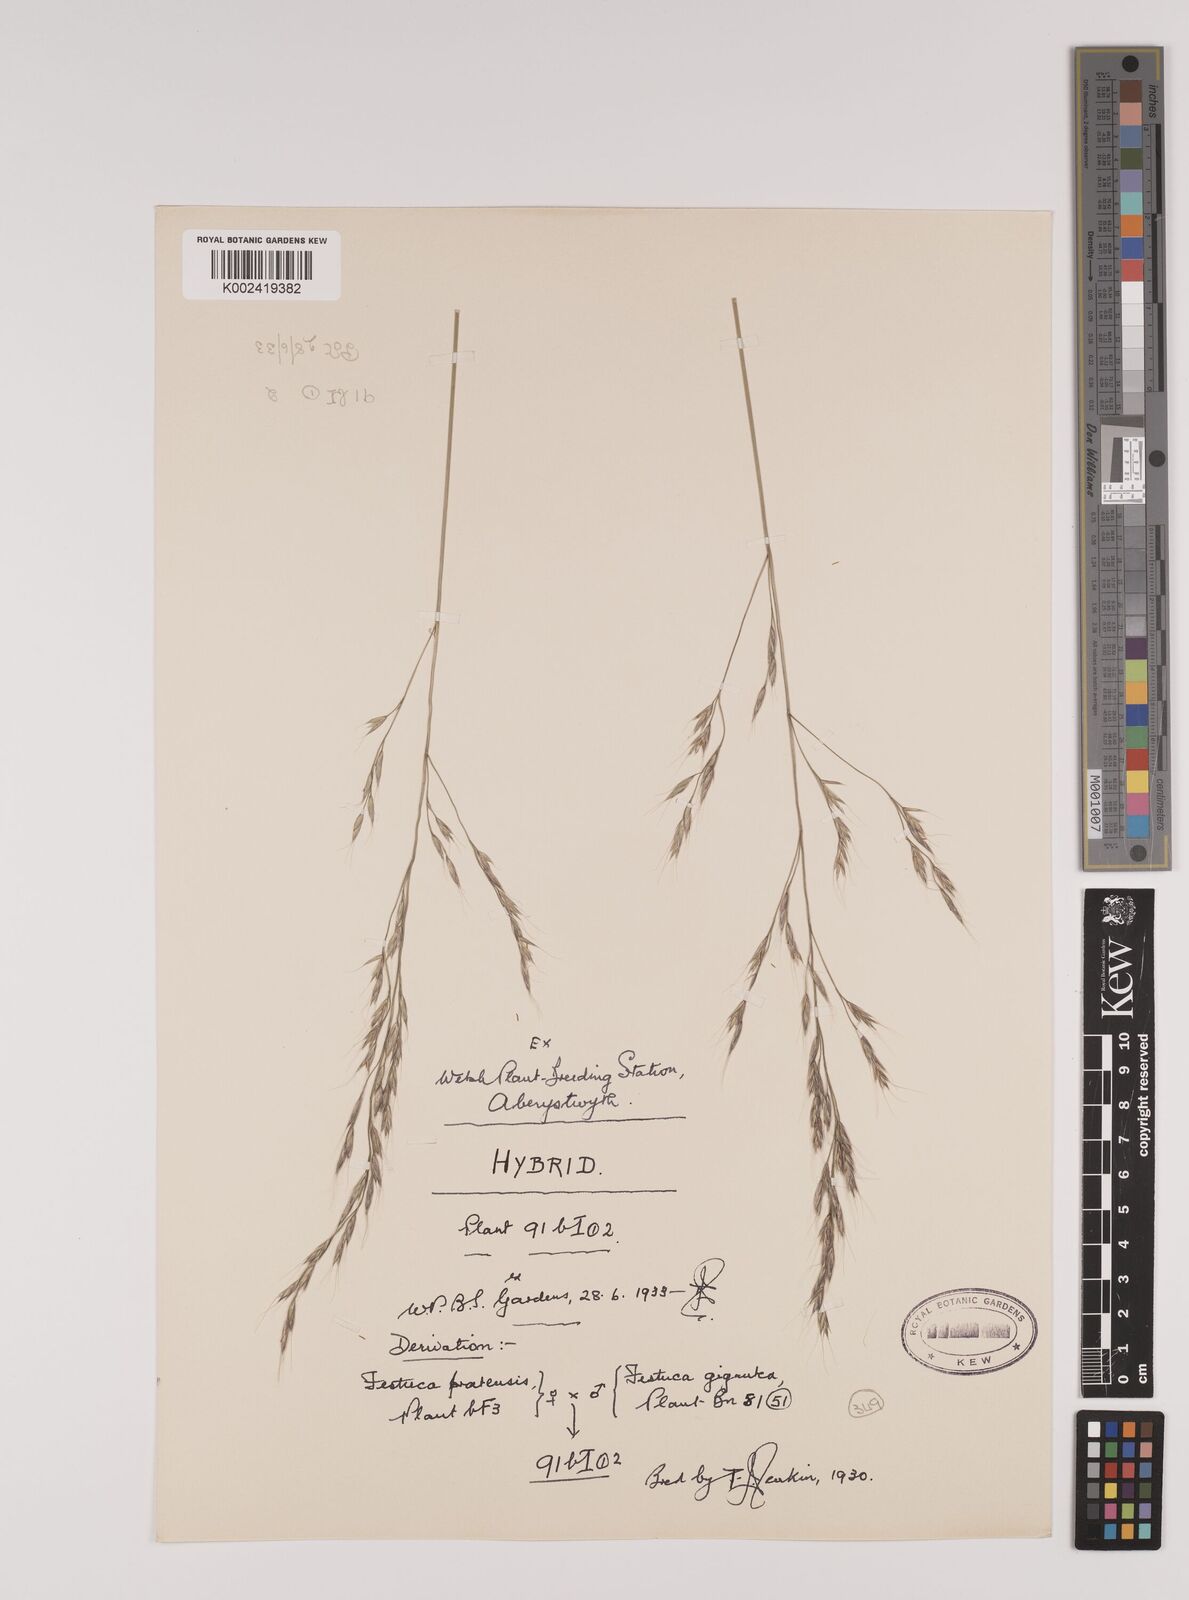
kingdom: Plantae
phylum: Tracheophyta
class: Liliopsida
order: Poales
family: Poaceae
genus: Lolium
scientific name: Lolium giganteum
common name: Giant fescue
